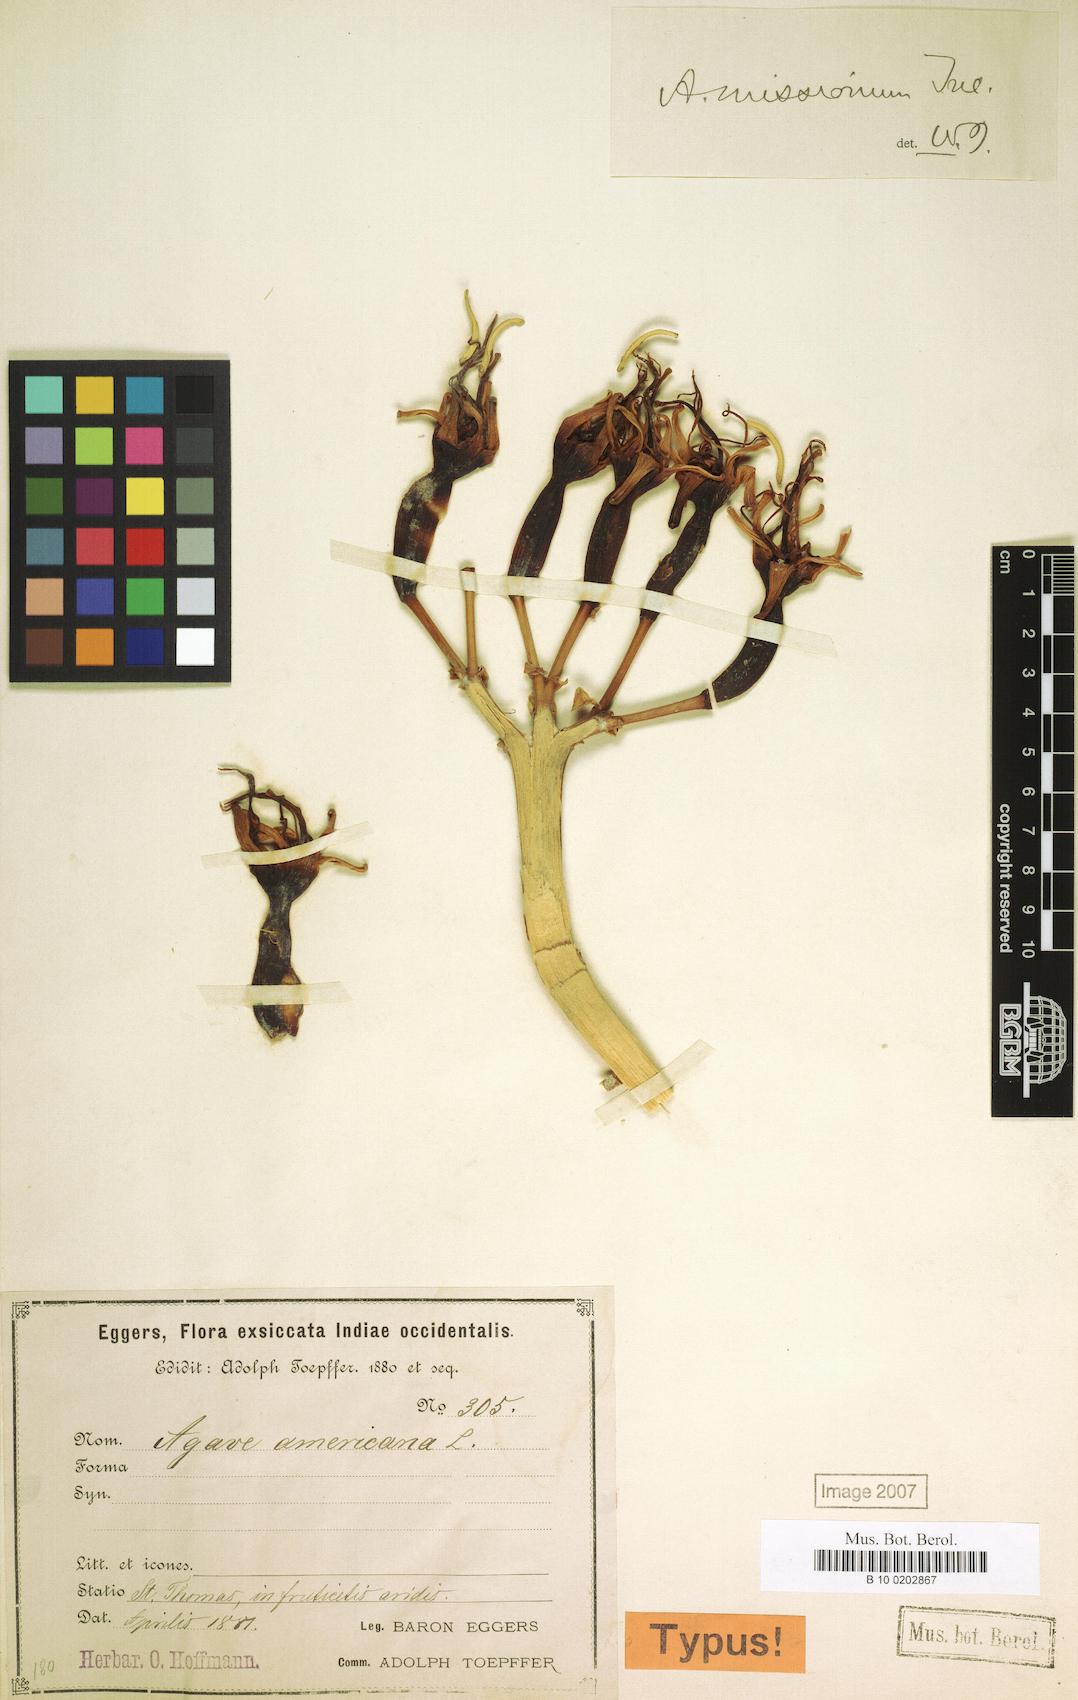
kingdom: Plantae
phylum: Tracheophyta
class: Liliopsida
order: Asparagales
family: Asparagaceae
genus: Agave
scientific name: Agave missionum
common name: Century plant
